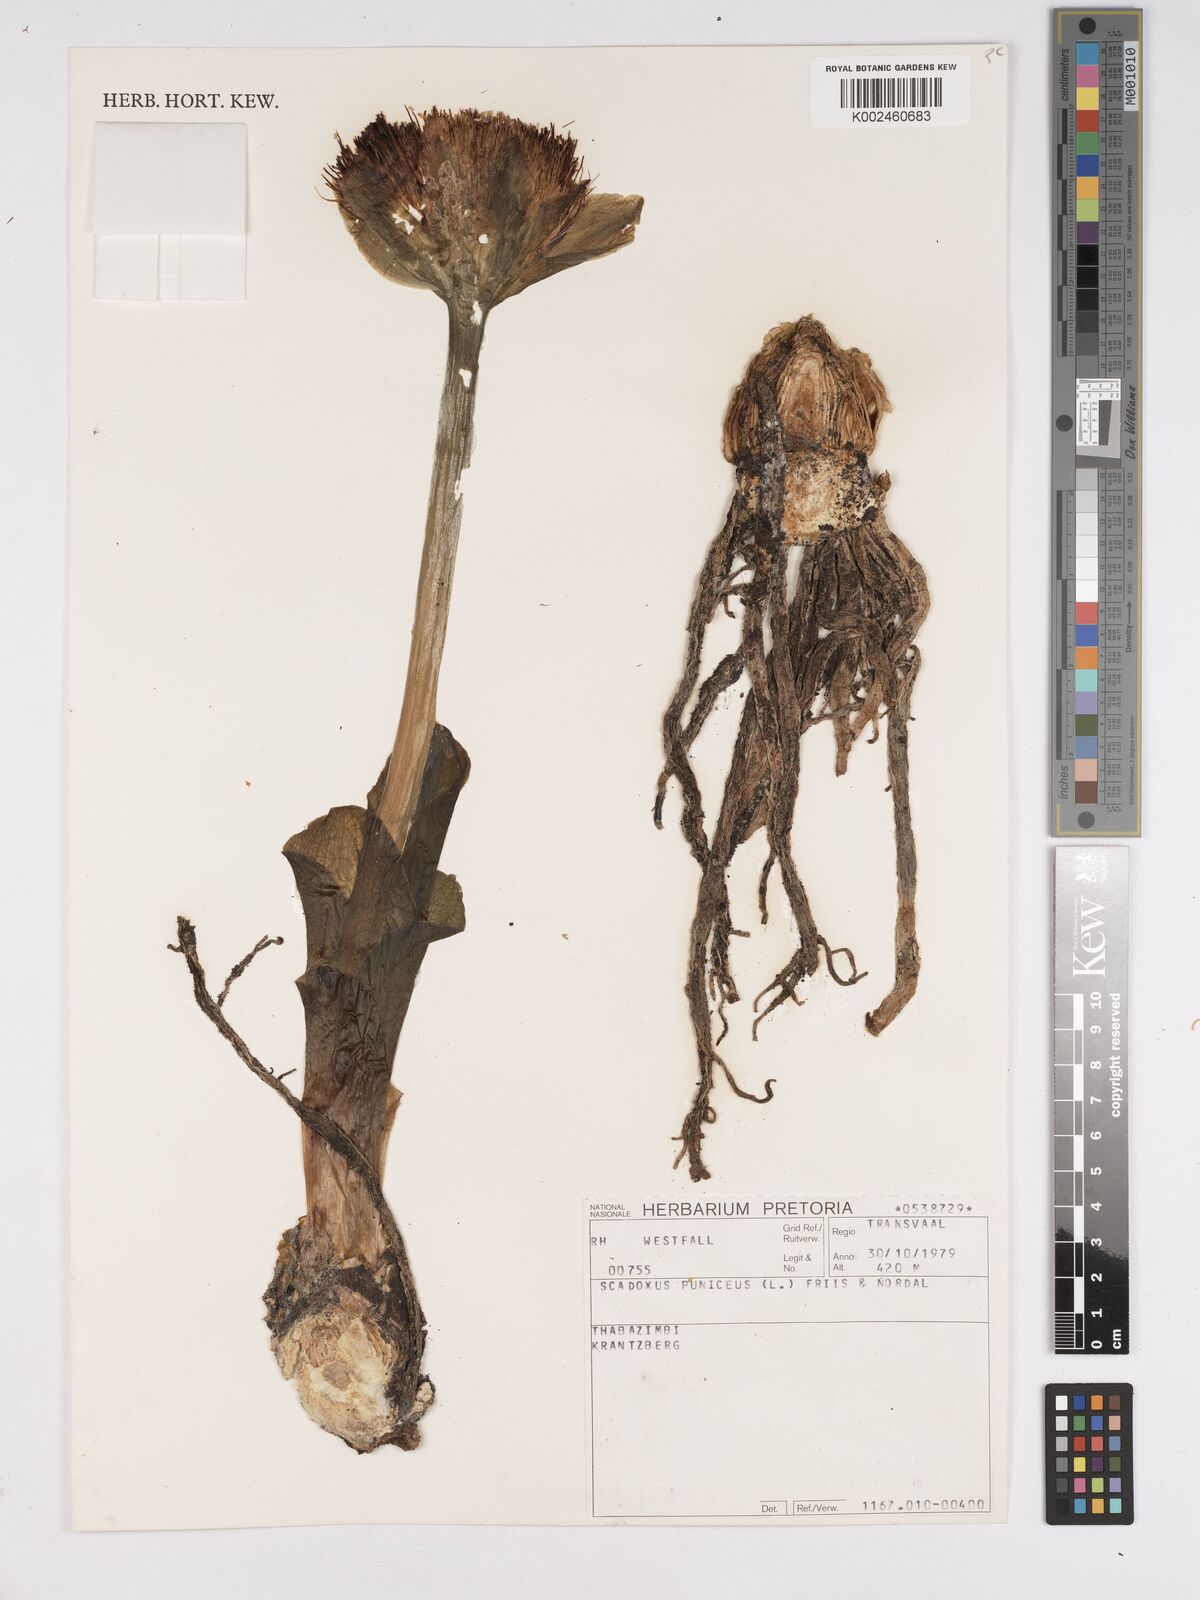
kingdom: Plantae
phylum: Tracheophyta
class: Liliopsida
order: Asparagales
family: Amaryllidaceae
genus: Scadoxus
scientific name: Scadoxus puniceus
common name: Royal-paintbrush
